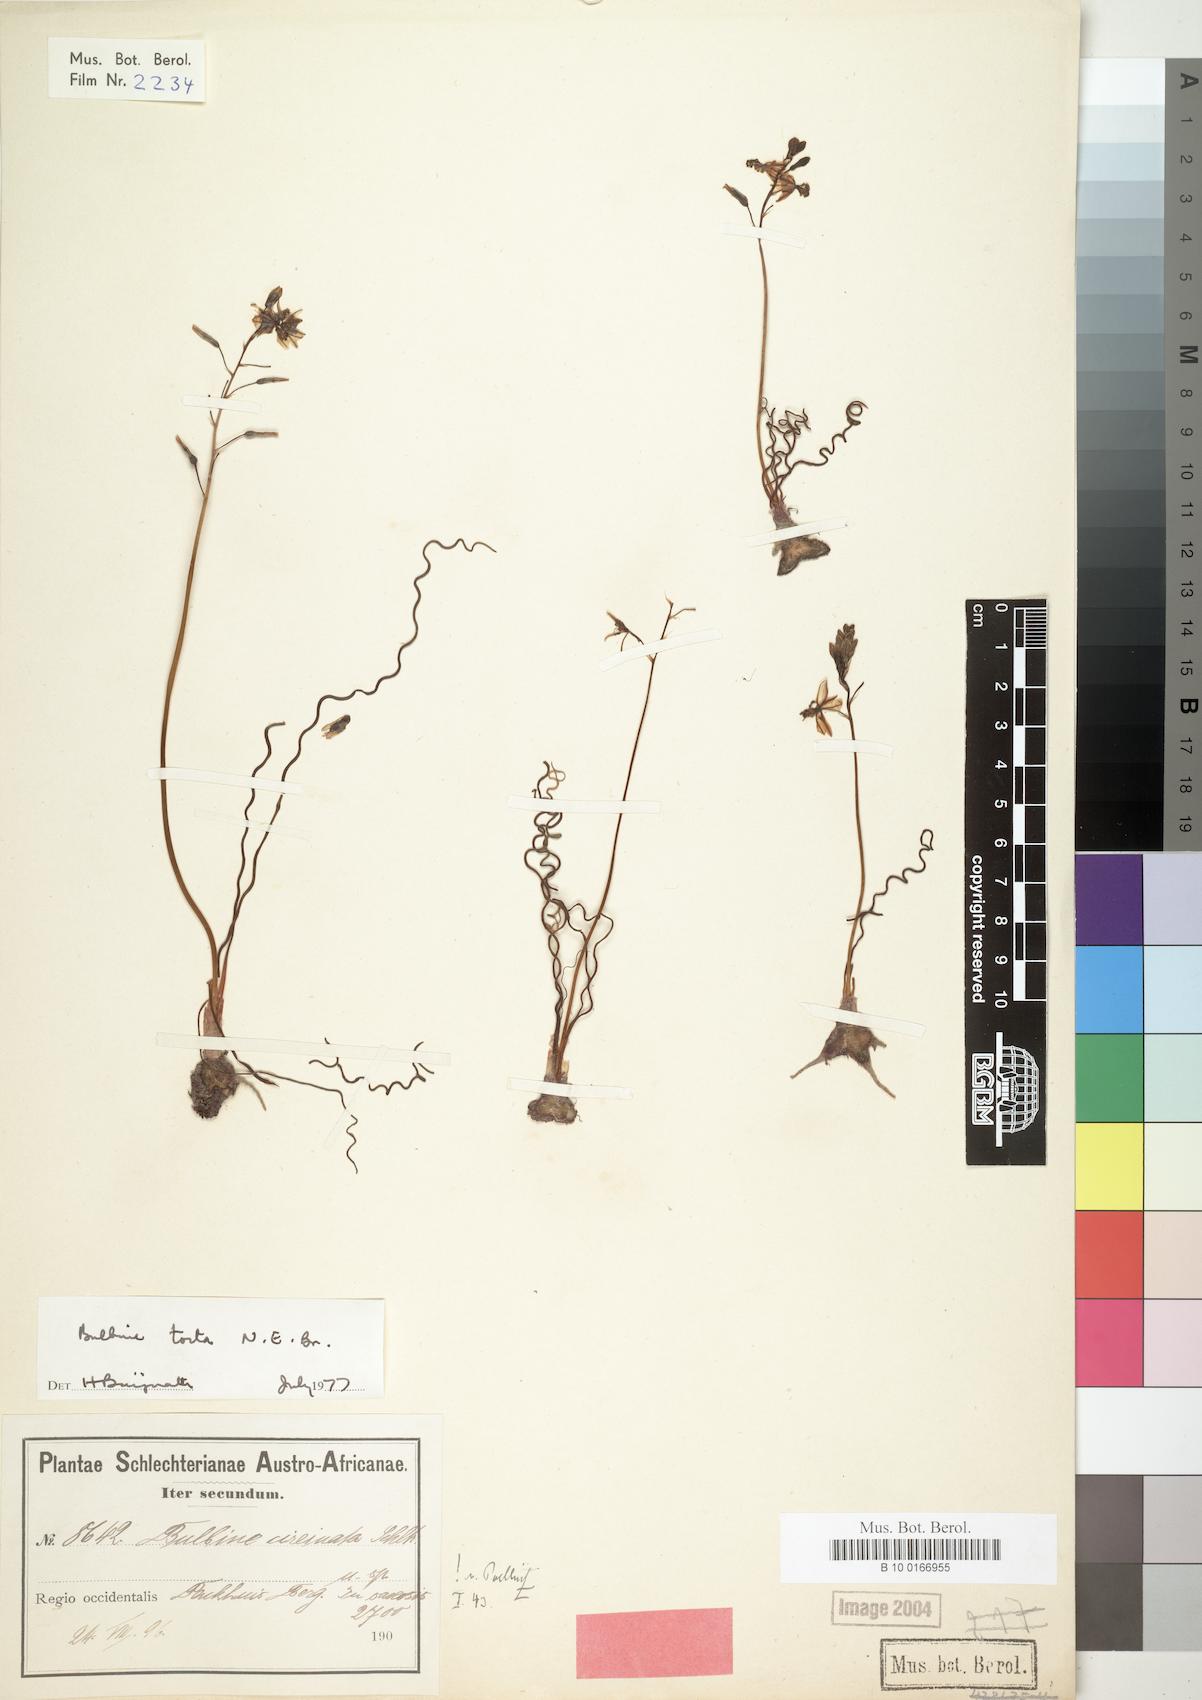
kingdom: Plantae
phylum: Tracheophyta
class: Liliopsida
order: Asparagales
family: Asphodelaceae
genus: Bulbine
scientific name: Bulbine torta
